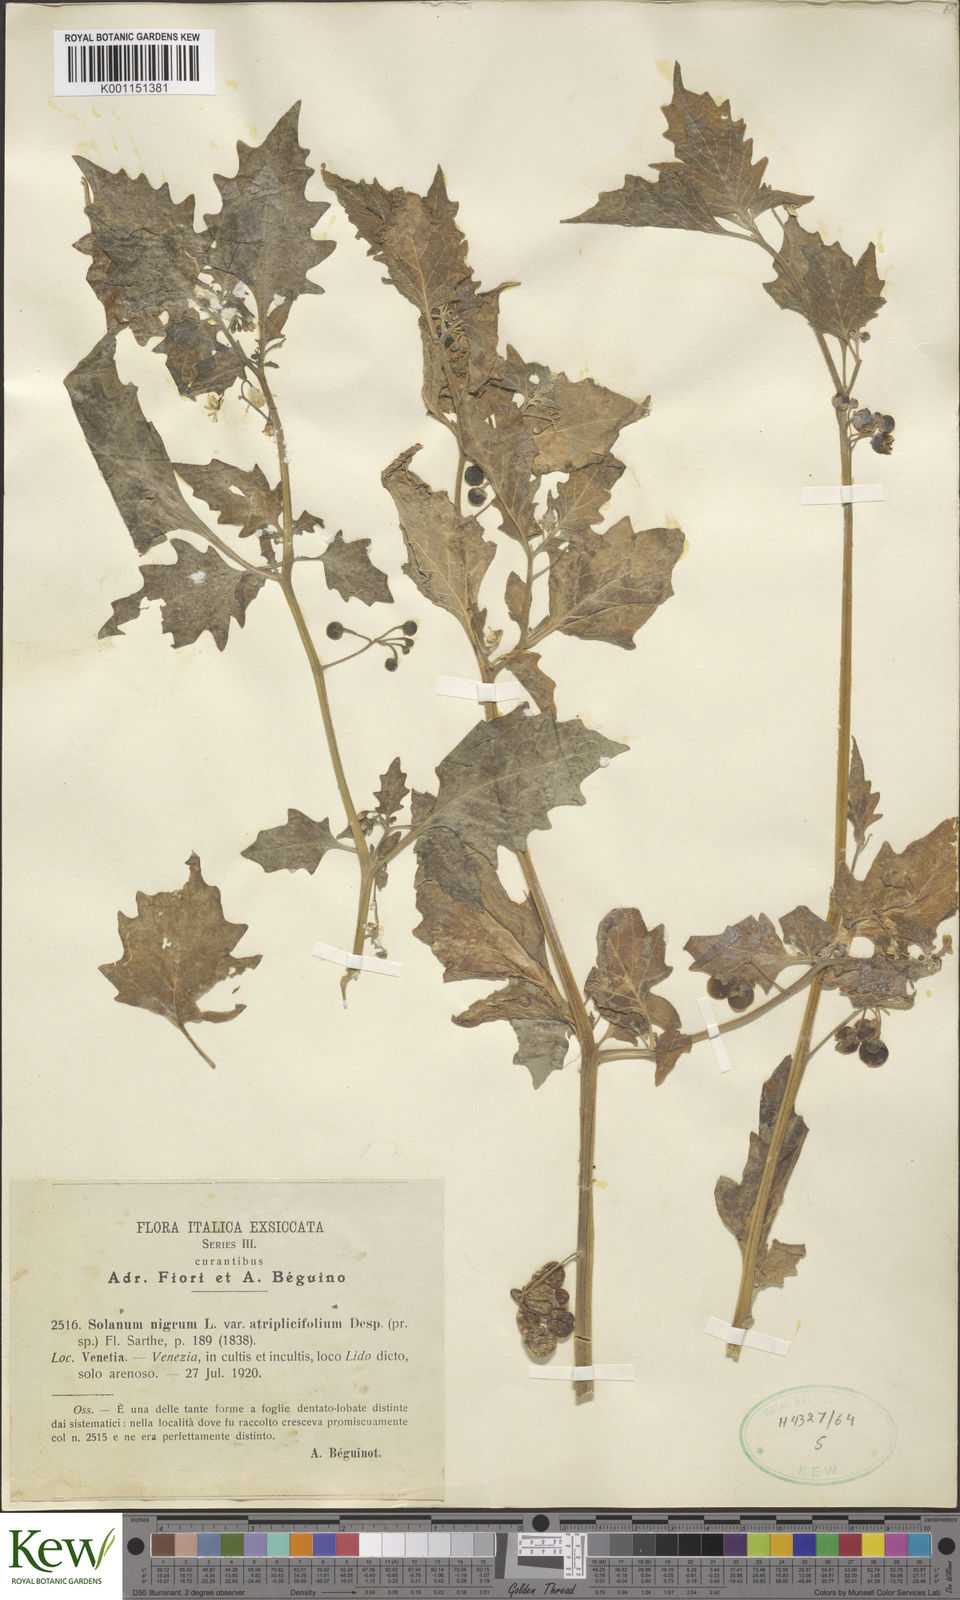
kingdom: Plantae
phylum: Tracheophyta
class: Magnoliopsida
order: Solanales
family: Solanaceae
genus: Solanum
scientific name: Solanum nigrum
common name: Black nightshade
